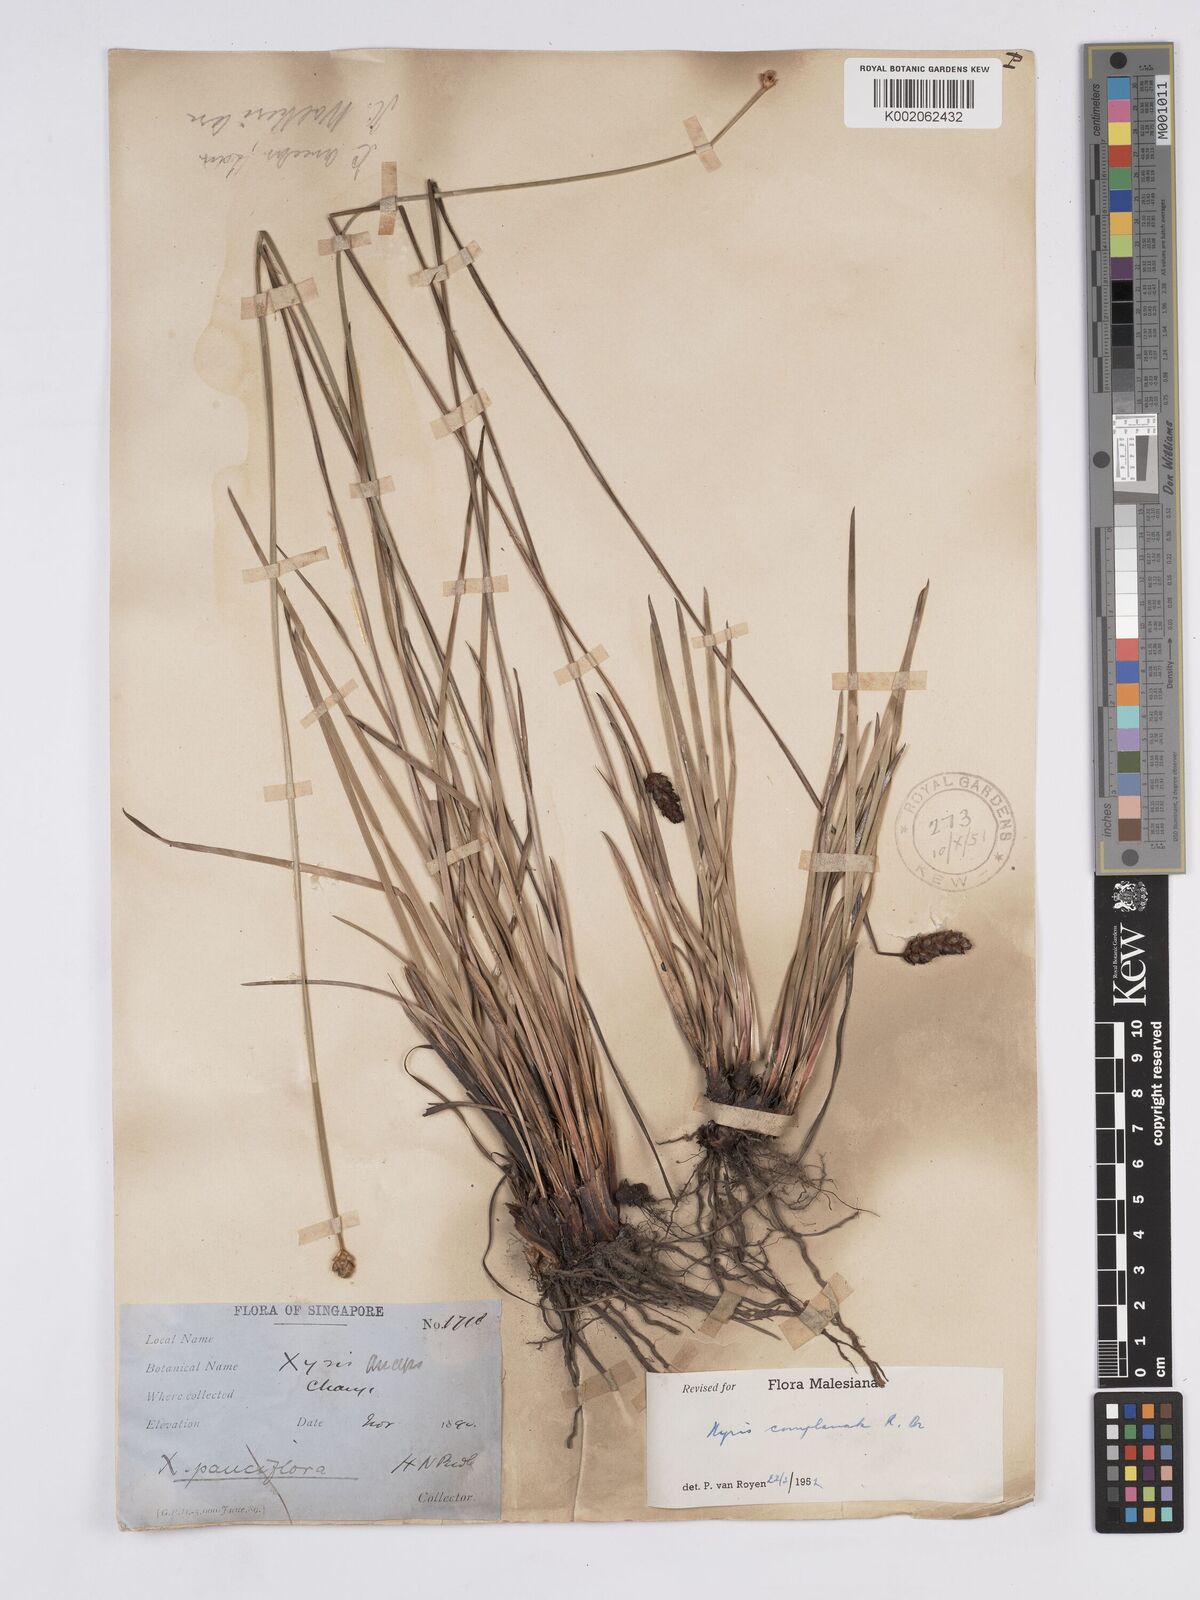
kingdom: Plantae
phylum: Tracheophyta
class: Liliopsida
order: Poales
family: Xyridaceae
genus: Xyris
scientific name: Xyris complanata
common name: Hawai'i yelloweyed grass
